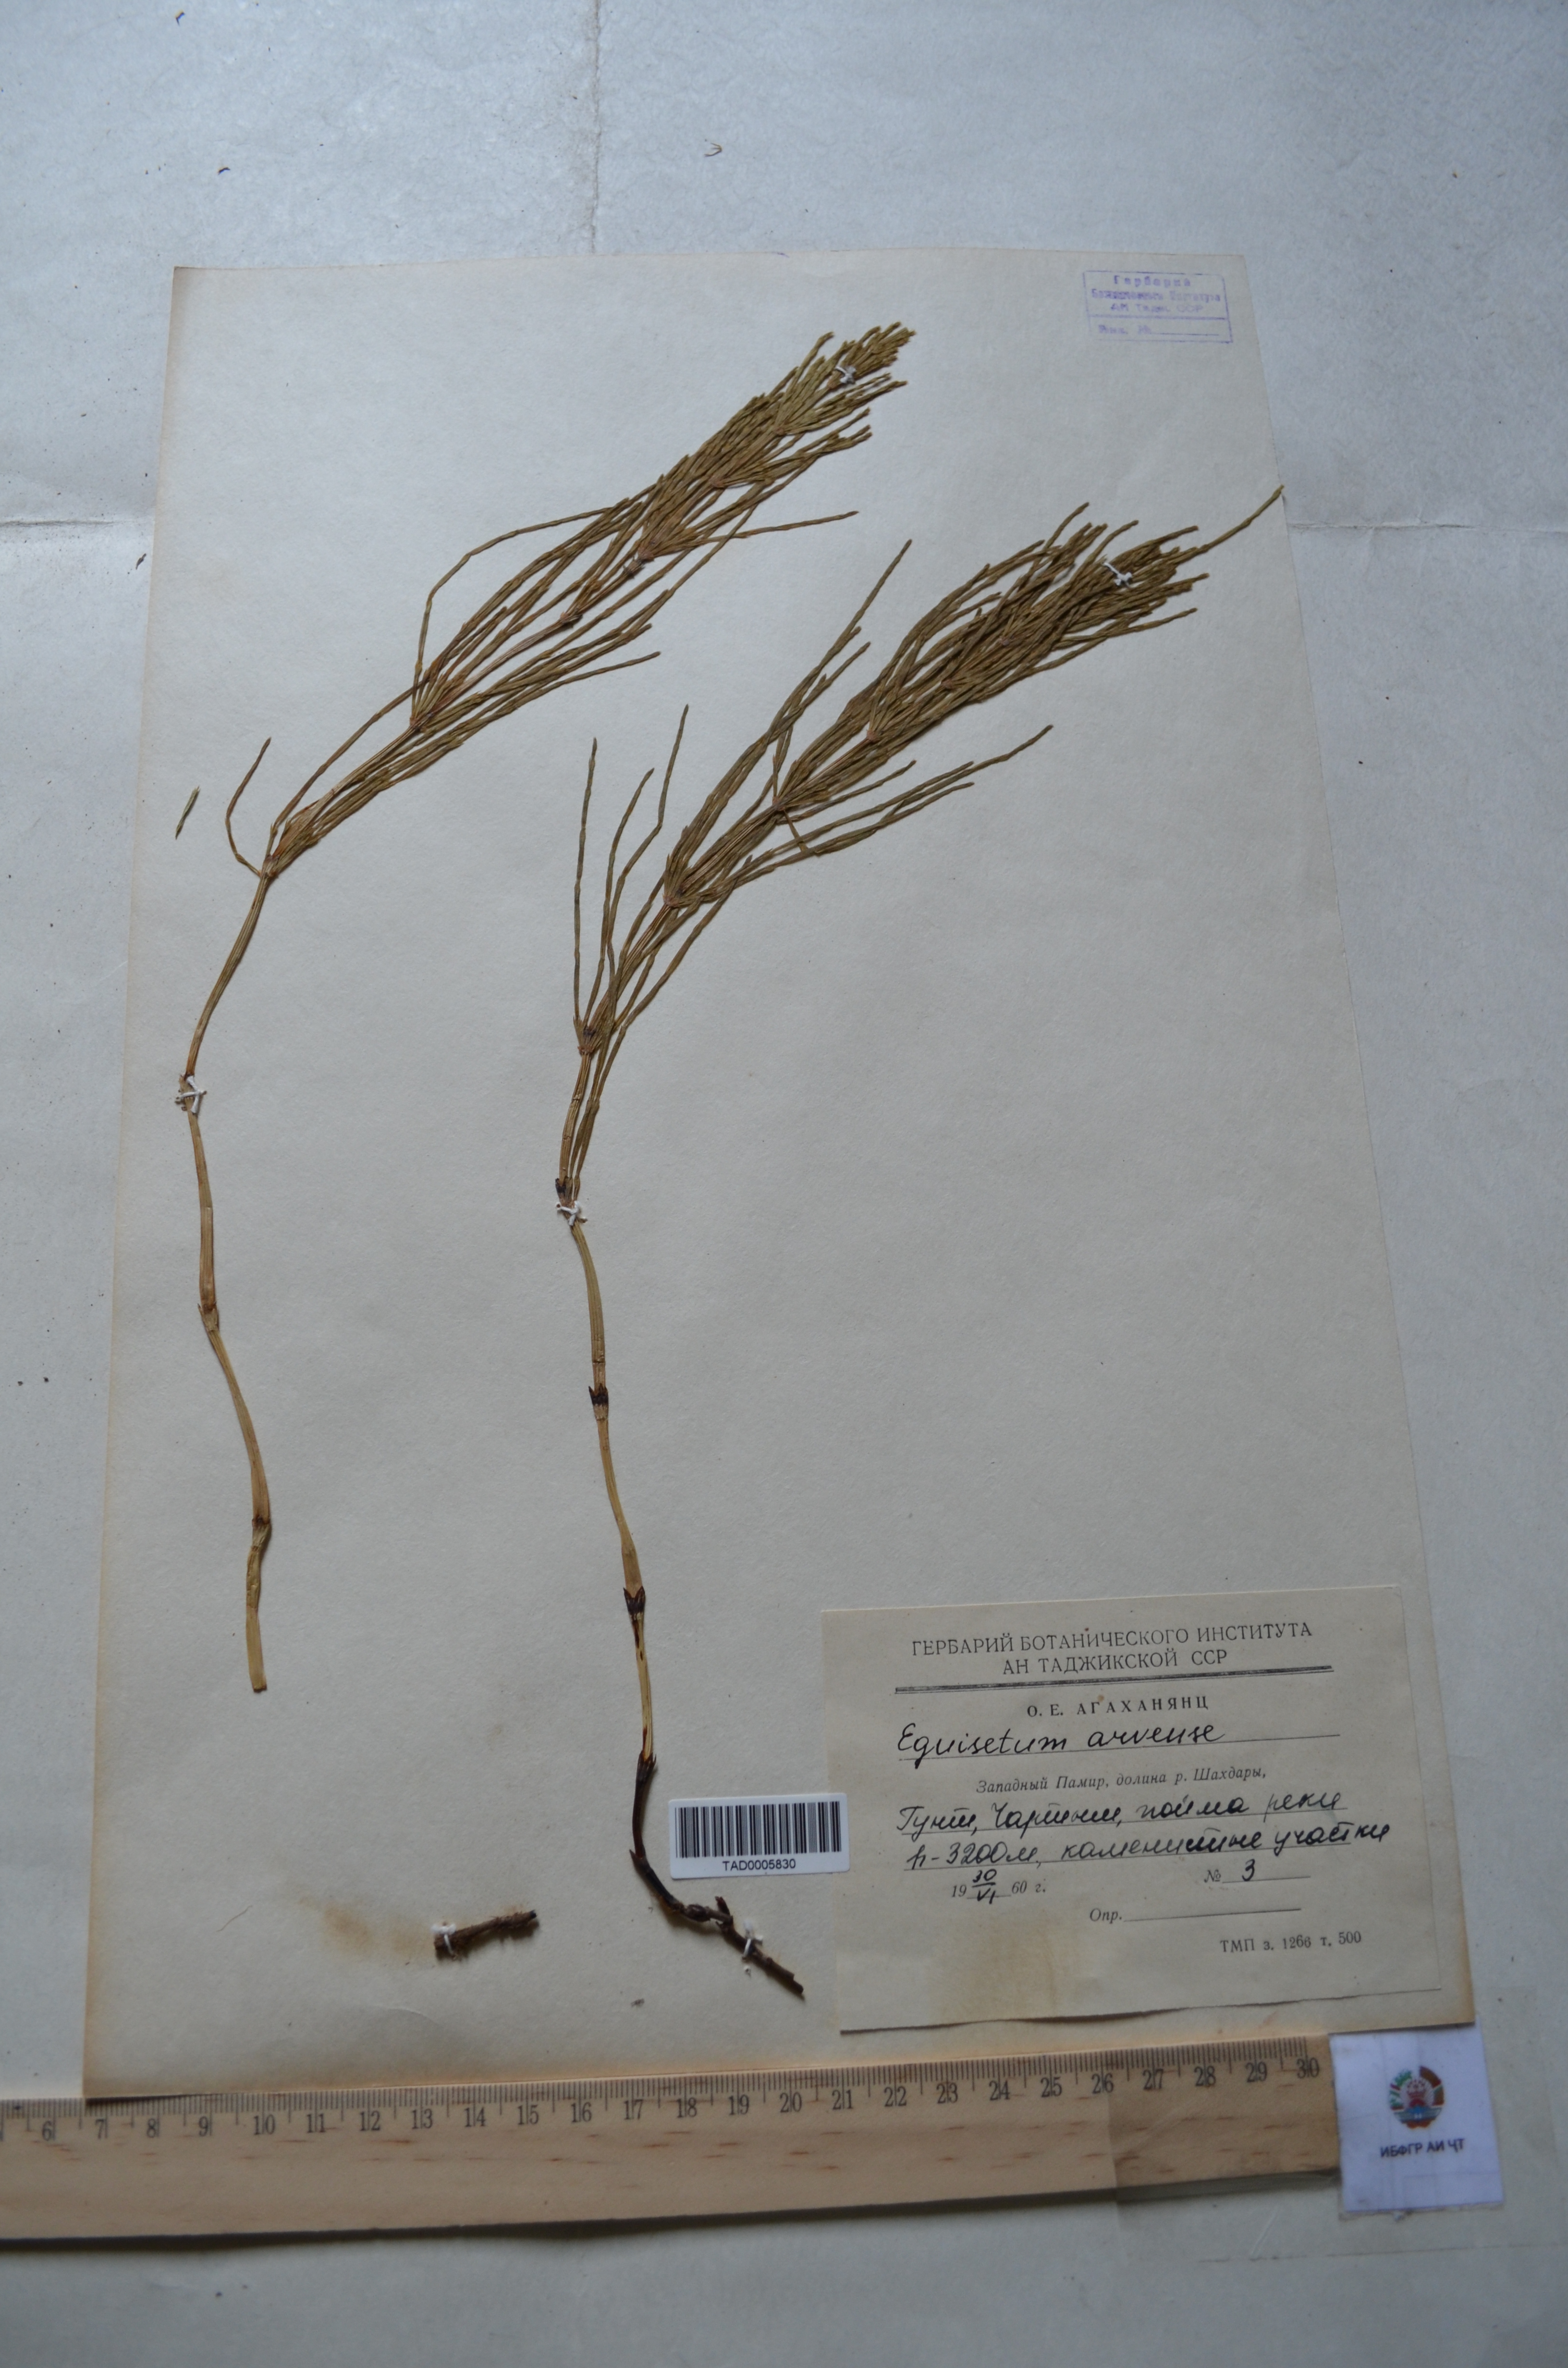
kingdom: Plantae
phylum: Tracheophyta
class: Polypodiopsida
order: Equisetales
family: Equisetaceae
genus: Equisetum
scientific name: Equisetum arvense
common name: Field horsetail
